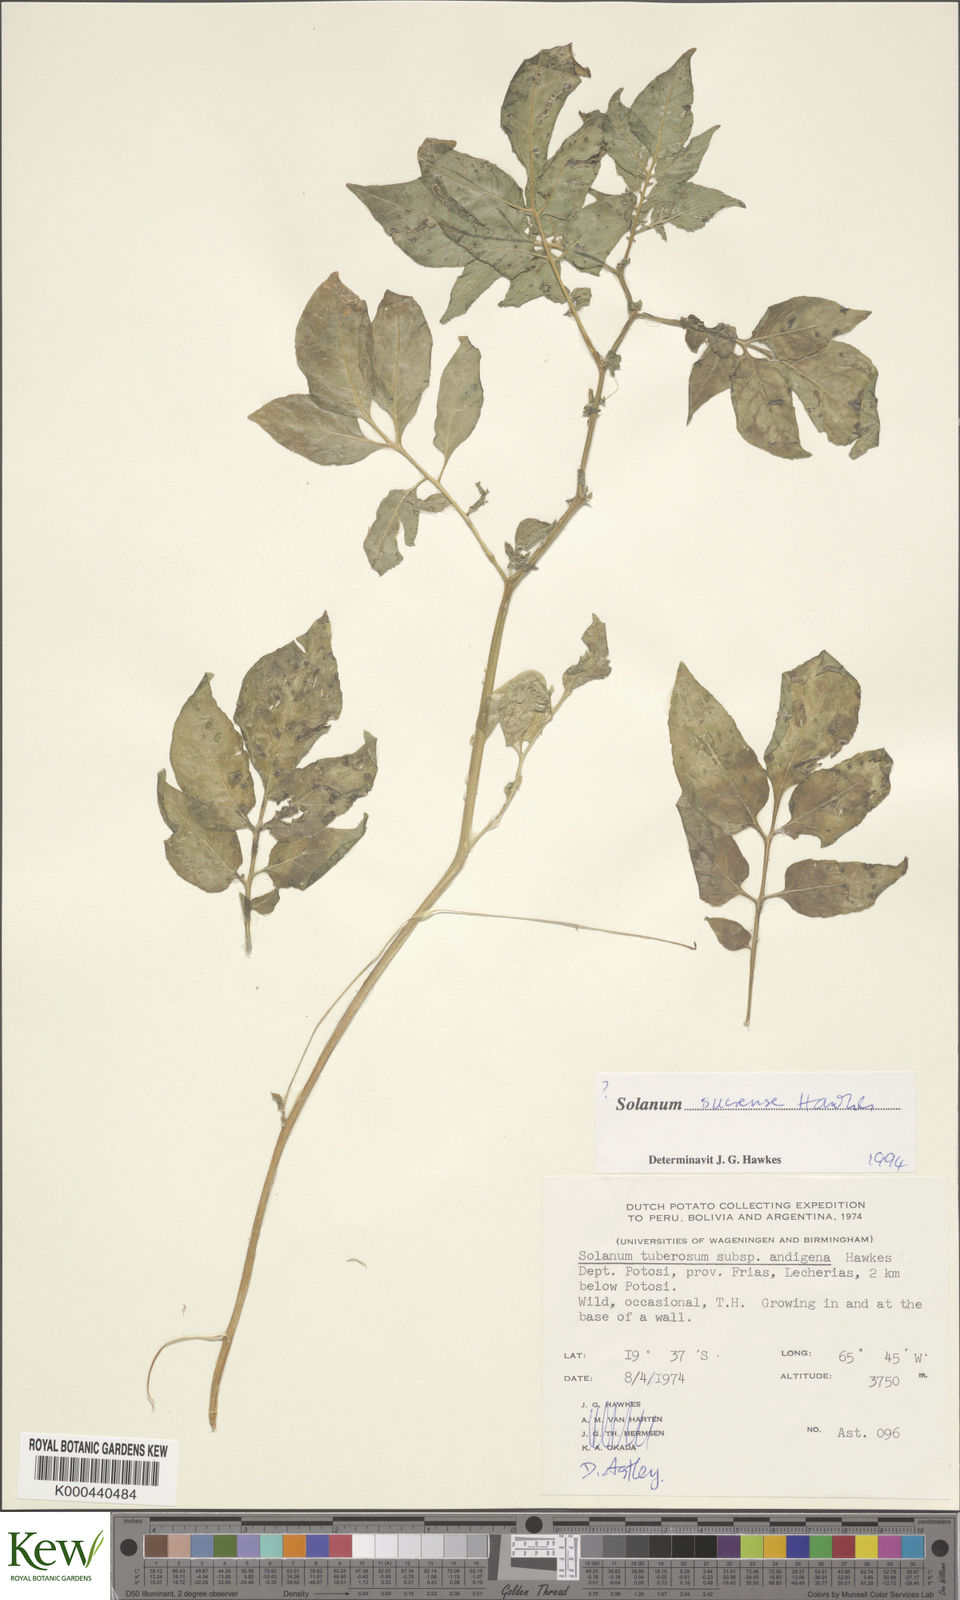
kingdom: Plantae
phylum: Tracheophyta
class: Magnoliopsida
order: Solanales
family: Solanaceae
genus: Solanum
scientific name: Solanum brevicaule
